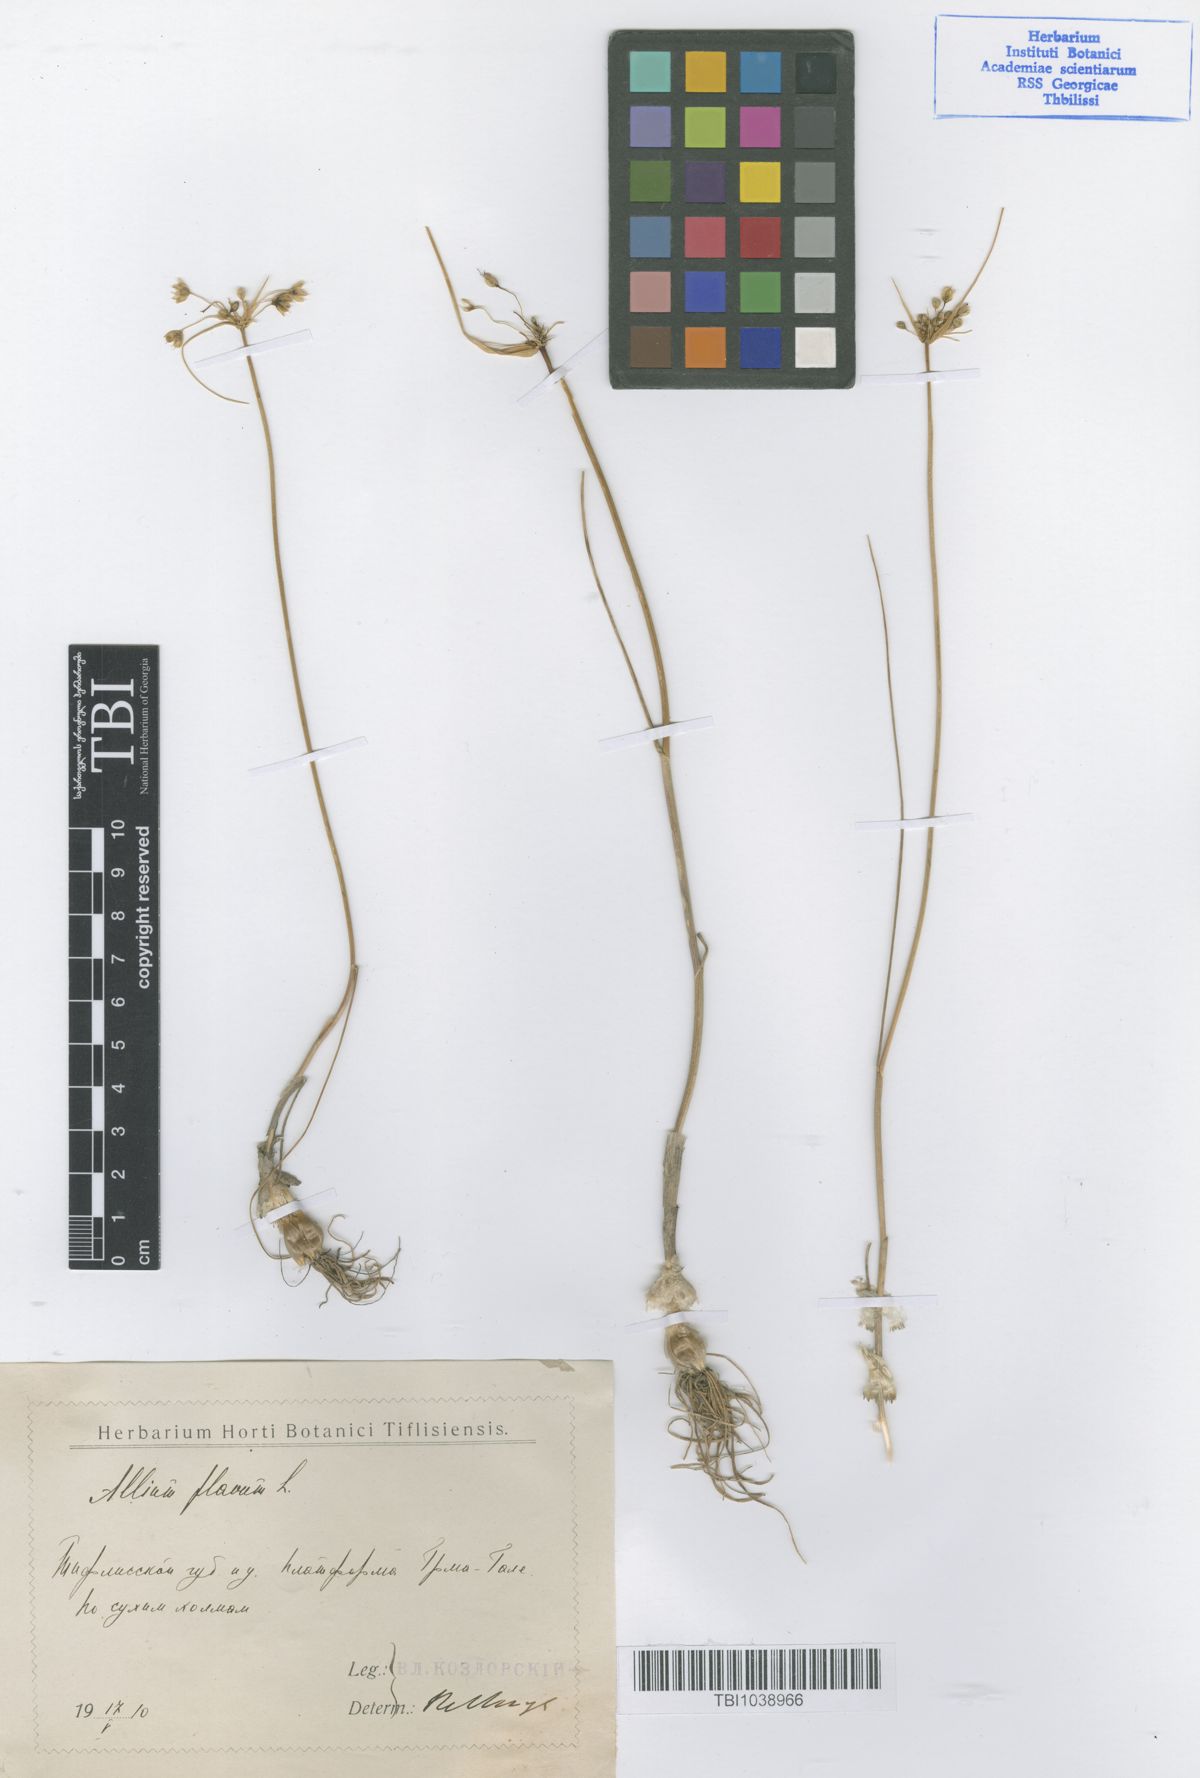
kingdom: Plantae
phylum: Tracheophyta
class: Liliopsida
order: Asparagales
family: Amaryllidaceae
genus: Allium
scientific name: Allium pseudoflavum
